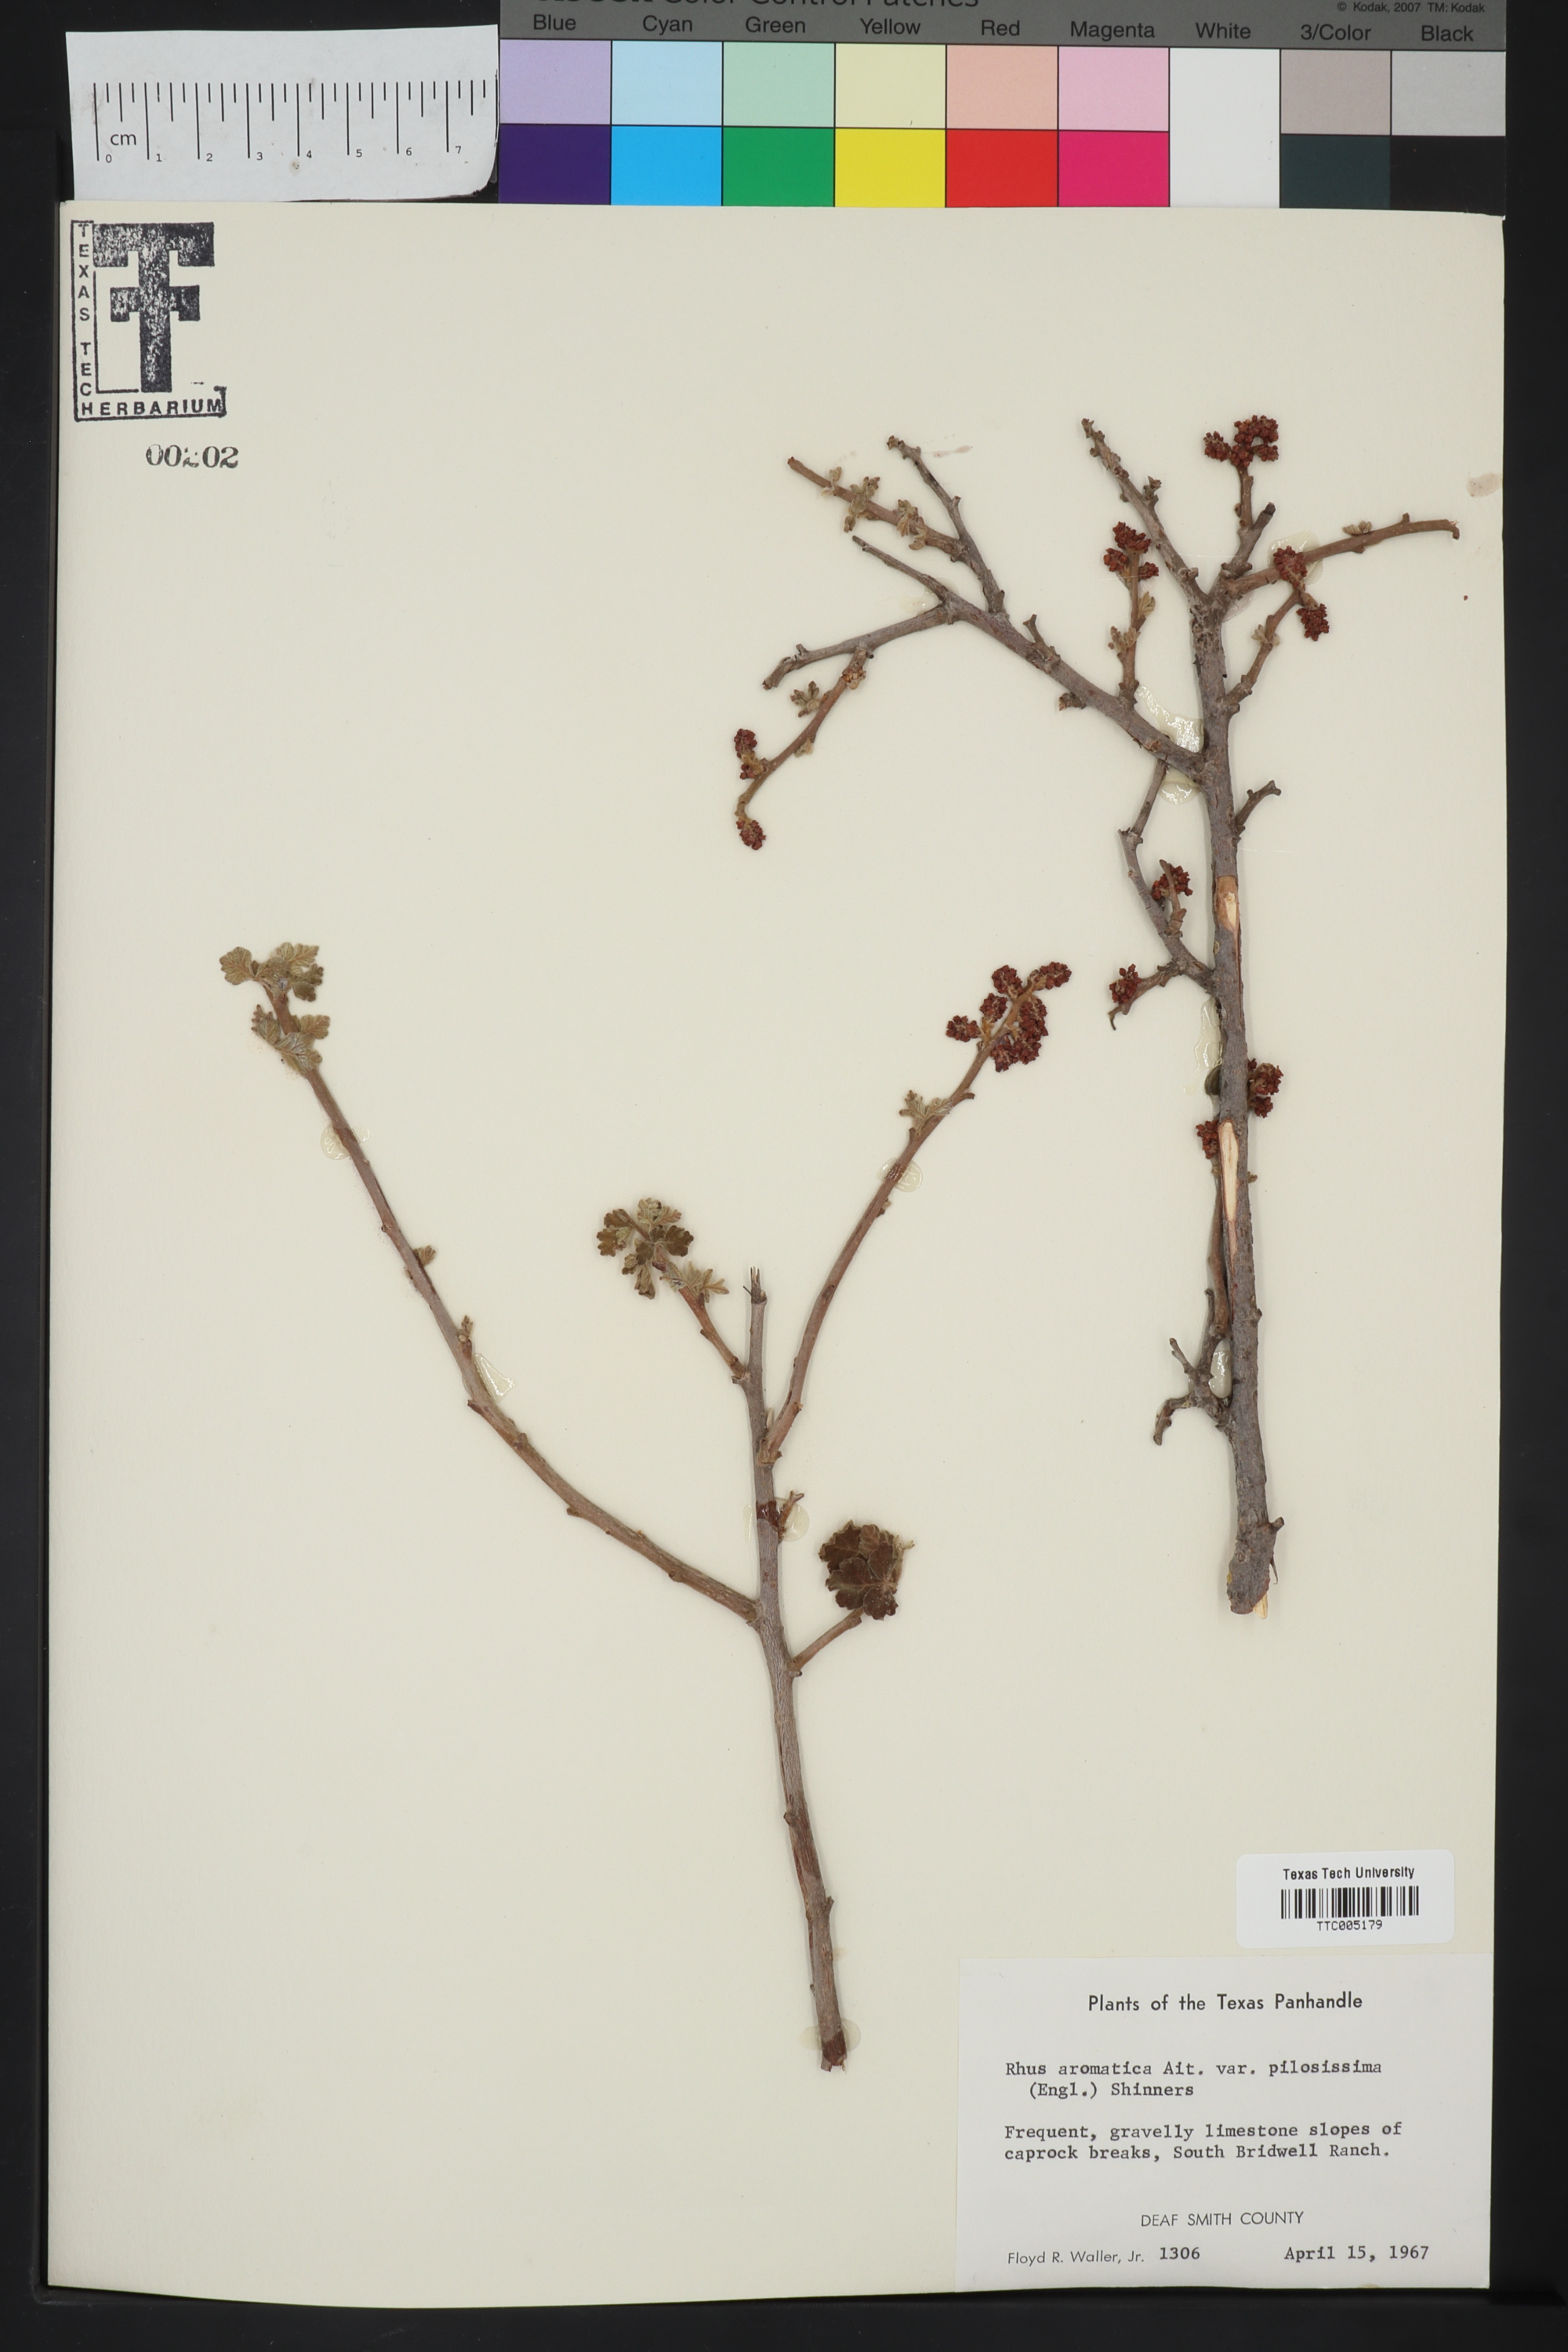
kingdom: Plantae
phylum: Tracheophyta
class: Magnoliopsida
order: Sapindales
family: Anacardiaceae
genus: Rhus
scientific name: Rhus trilobata
